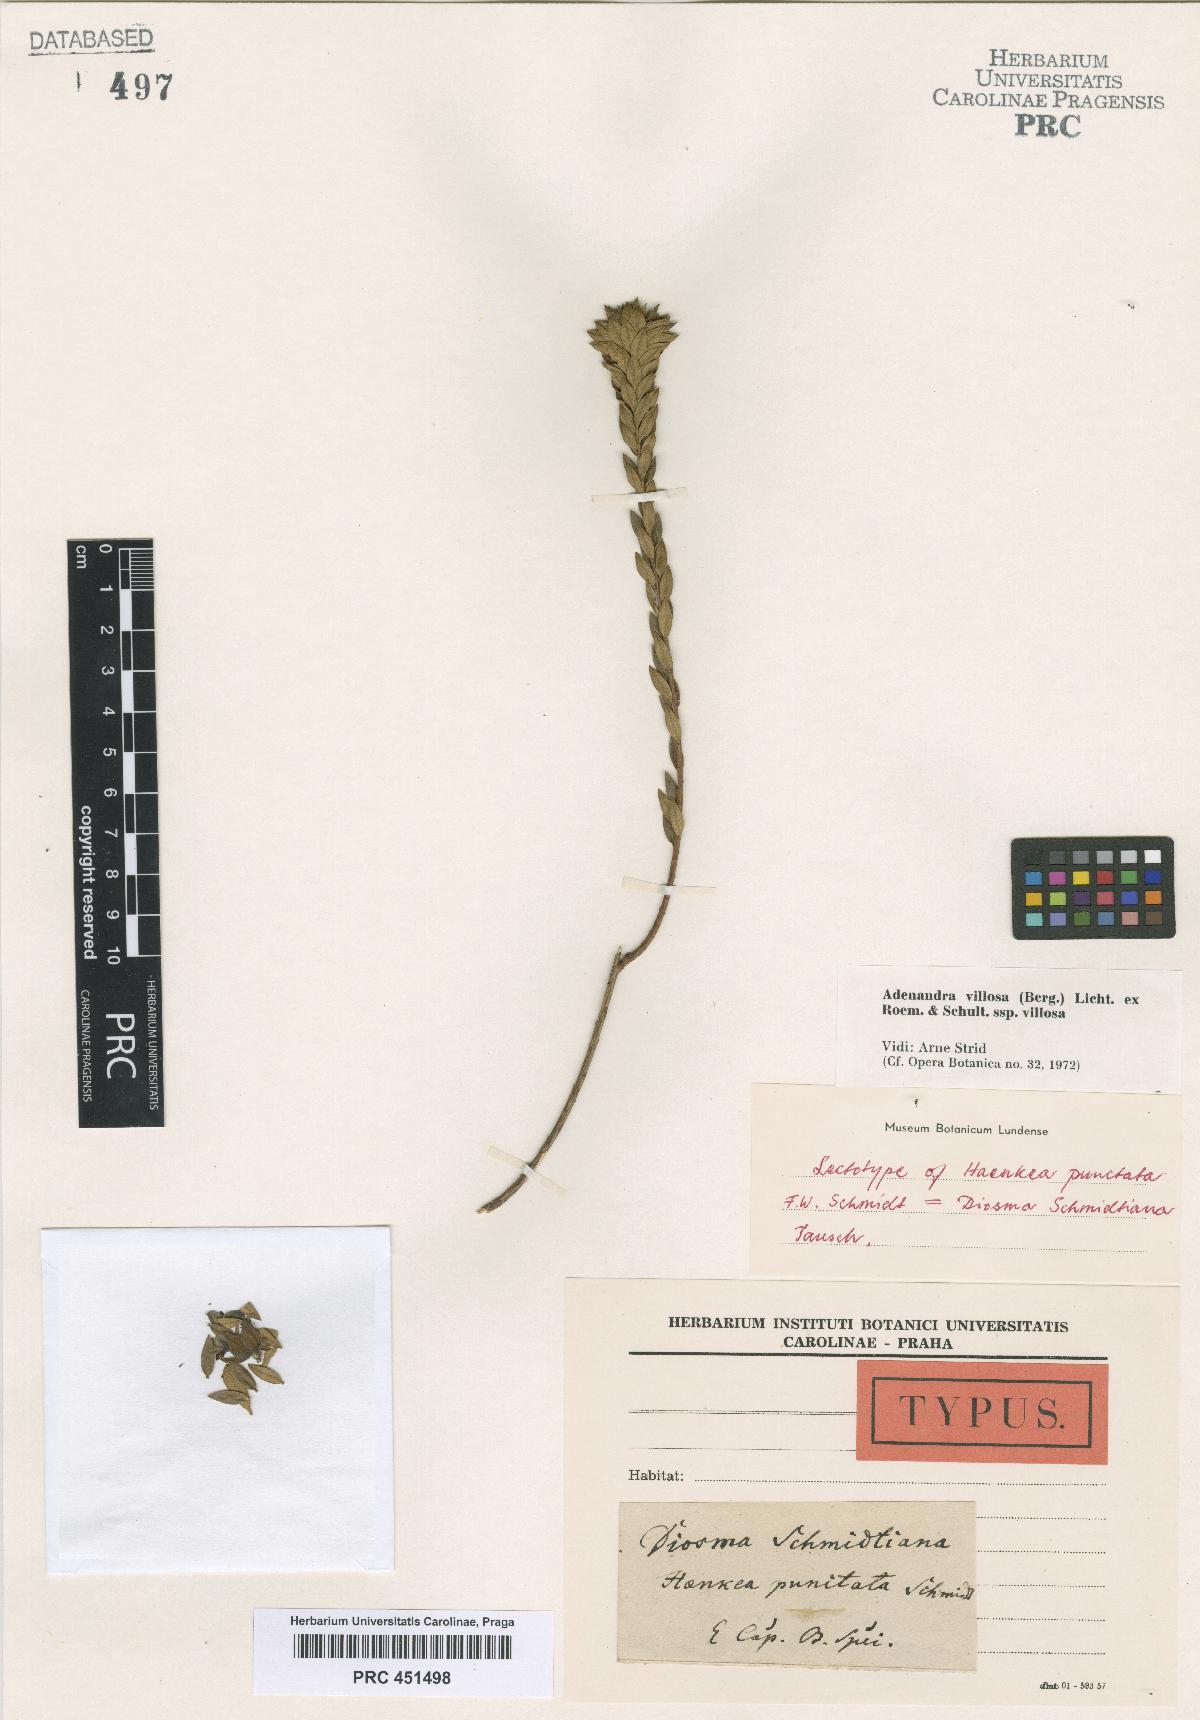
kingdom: Plantae
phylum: Tracheophyta
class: Magnoliopsida
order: Sapindales
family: Rutaceae
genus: Adenandra
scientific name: Adenandra villosa
